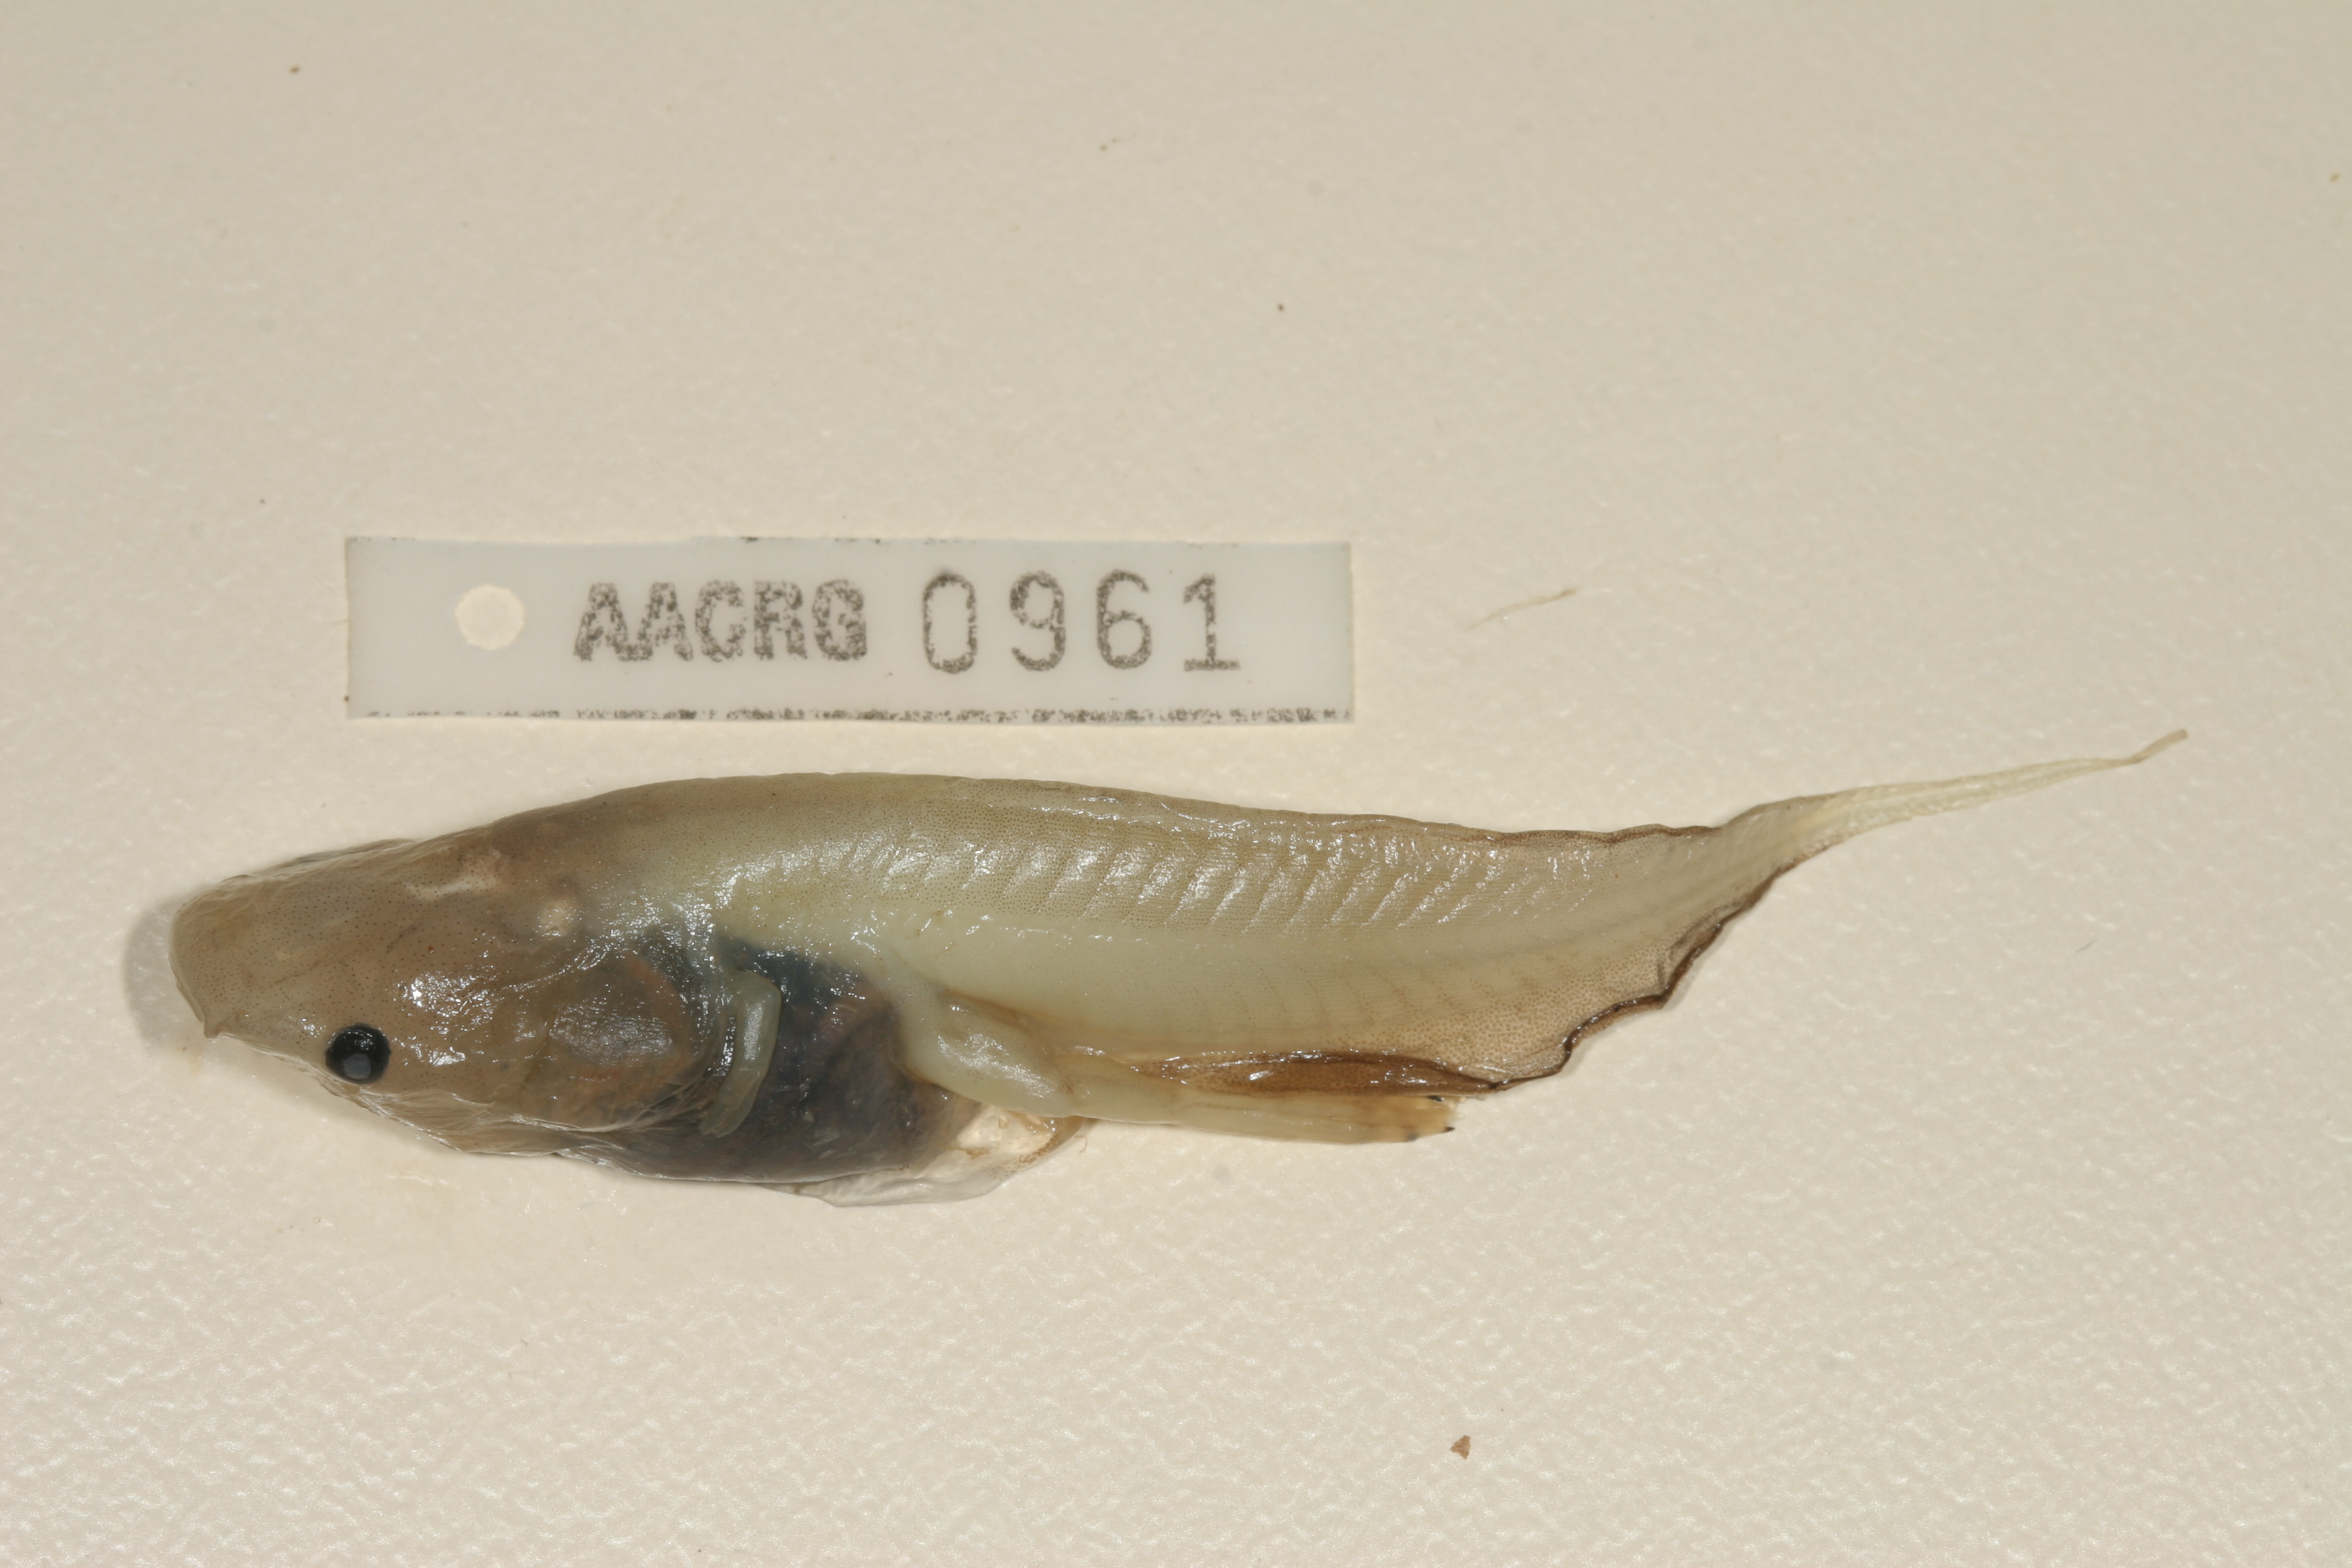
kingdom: Animalia
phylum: Chordata
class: Amphibia
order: Anura
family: Pipidae
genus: Xenopus
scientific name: Xenopus muelleri
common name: Muller's clawed frog
